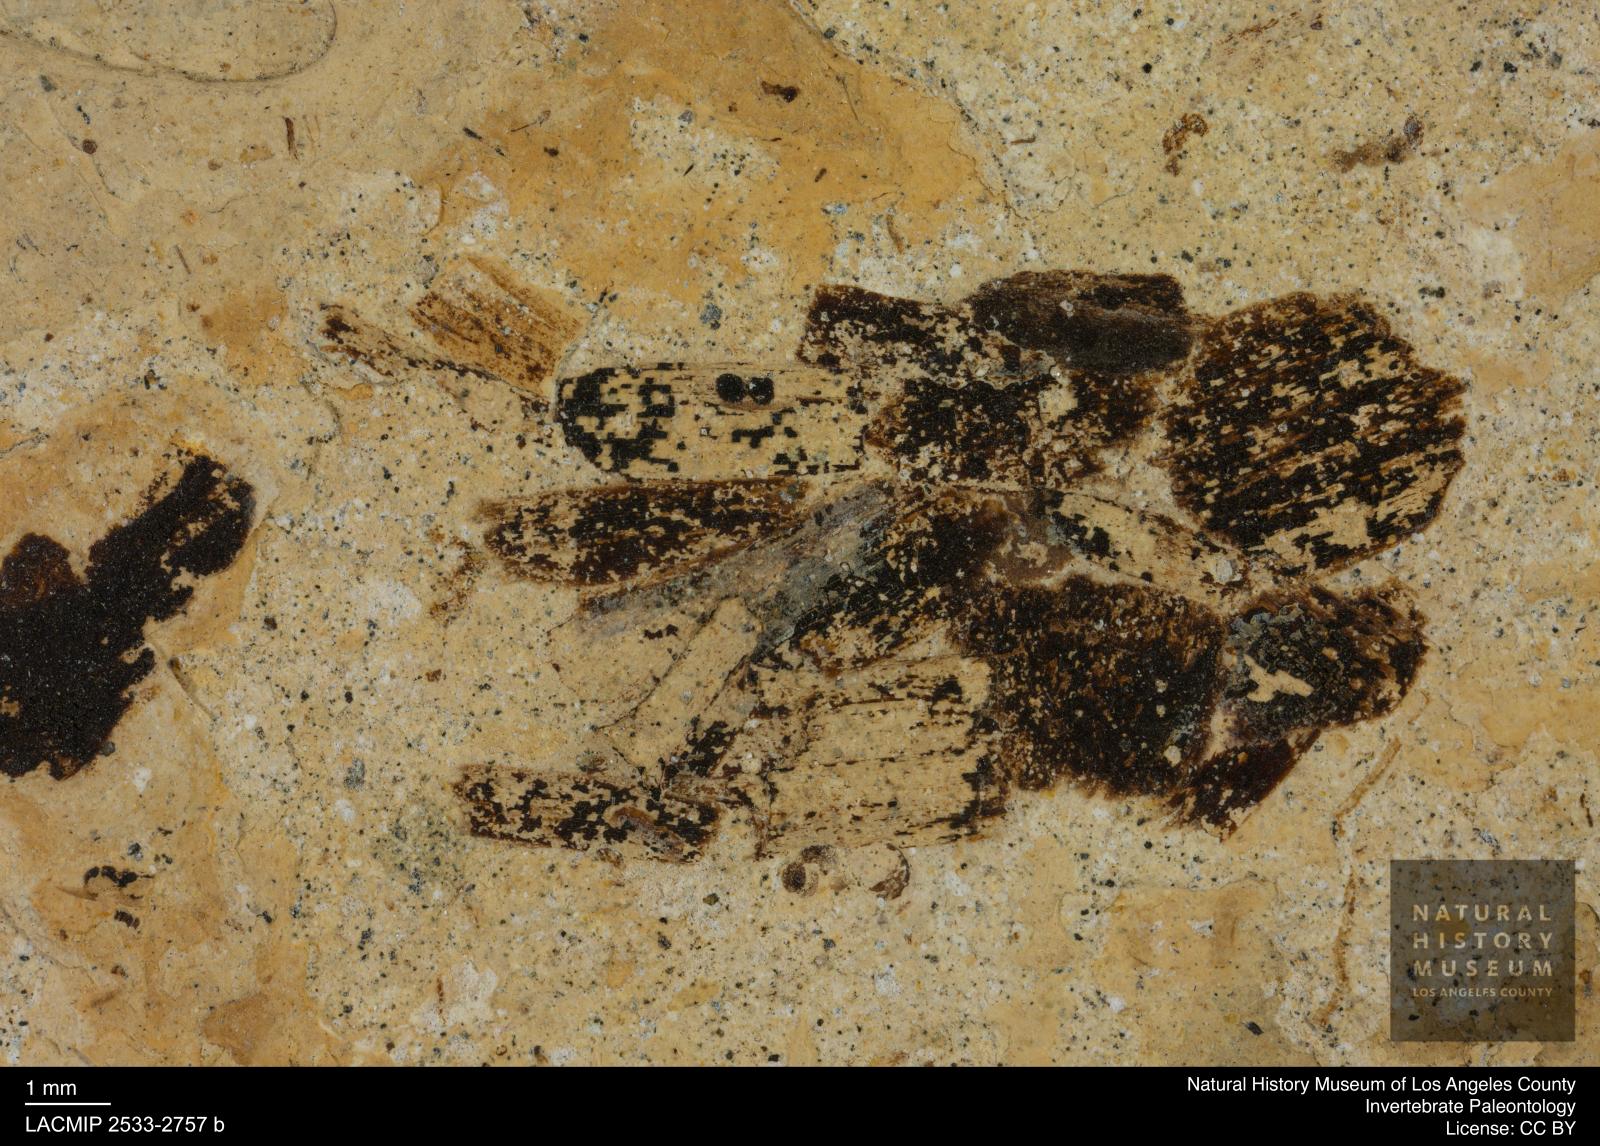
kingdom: Animalia
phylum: Arthropoda
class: Insecta
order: Trichoptera
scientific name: Trichoptera
